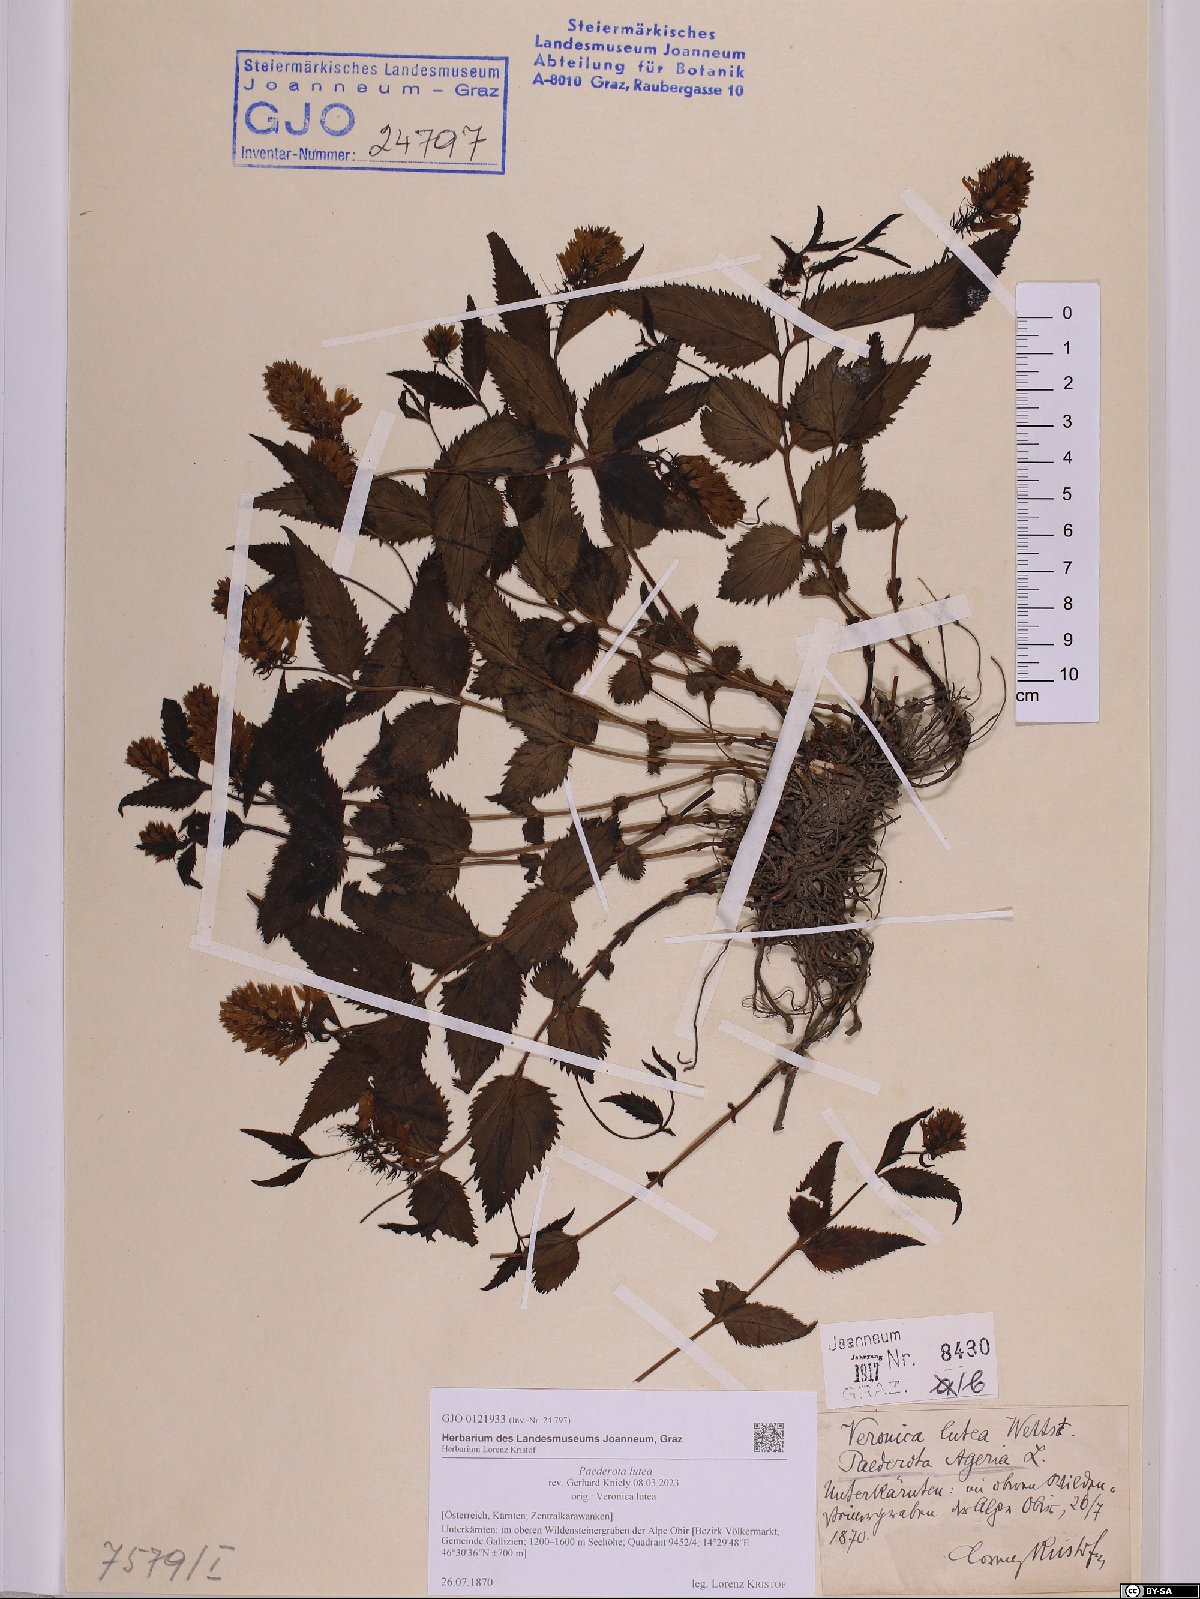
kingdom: Plantae
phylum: Tracheophyta
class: Magnoliopsida
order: Lamiales
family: Plantaginaceae
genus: Paederota
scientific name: Paederota lutea
